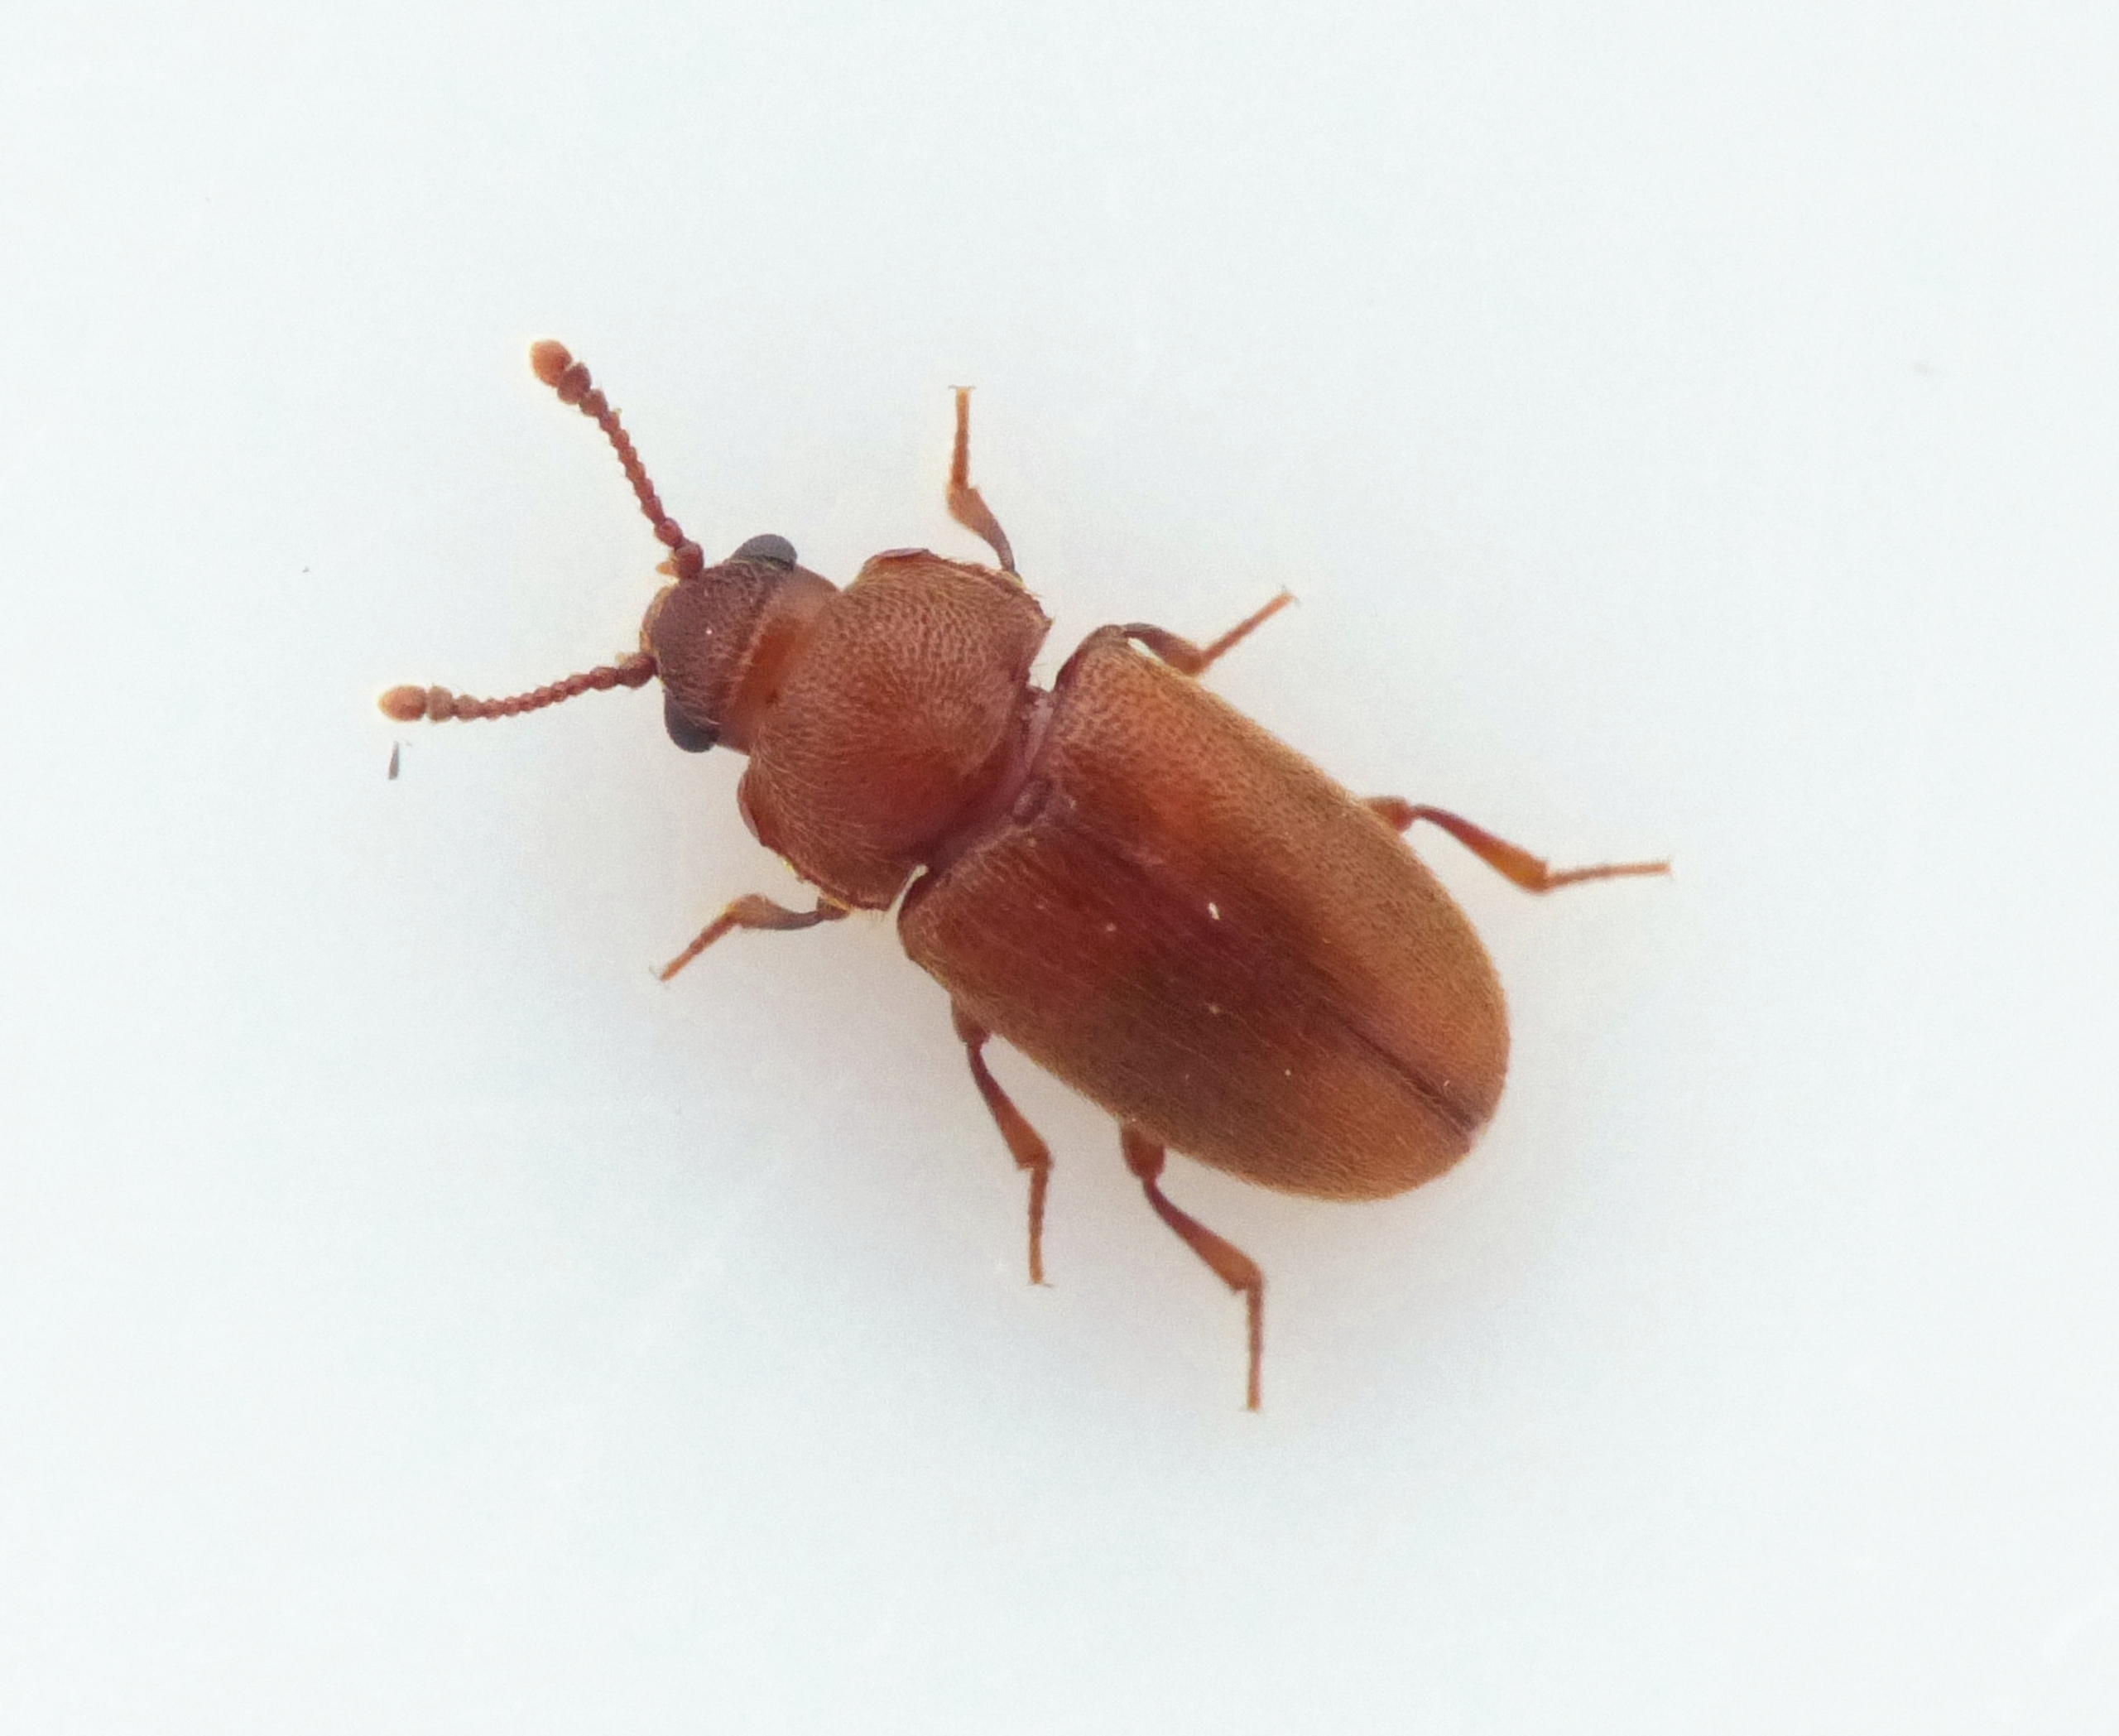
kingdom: Animalia
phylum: Arthropoda
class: Insecta
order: Coleoptera
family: Cryptophagidae
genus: Cryptophagus
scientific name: Cryptophagus pubescens
